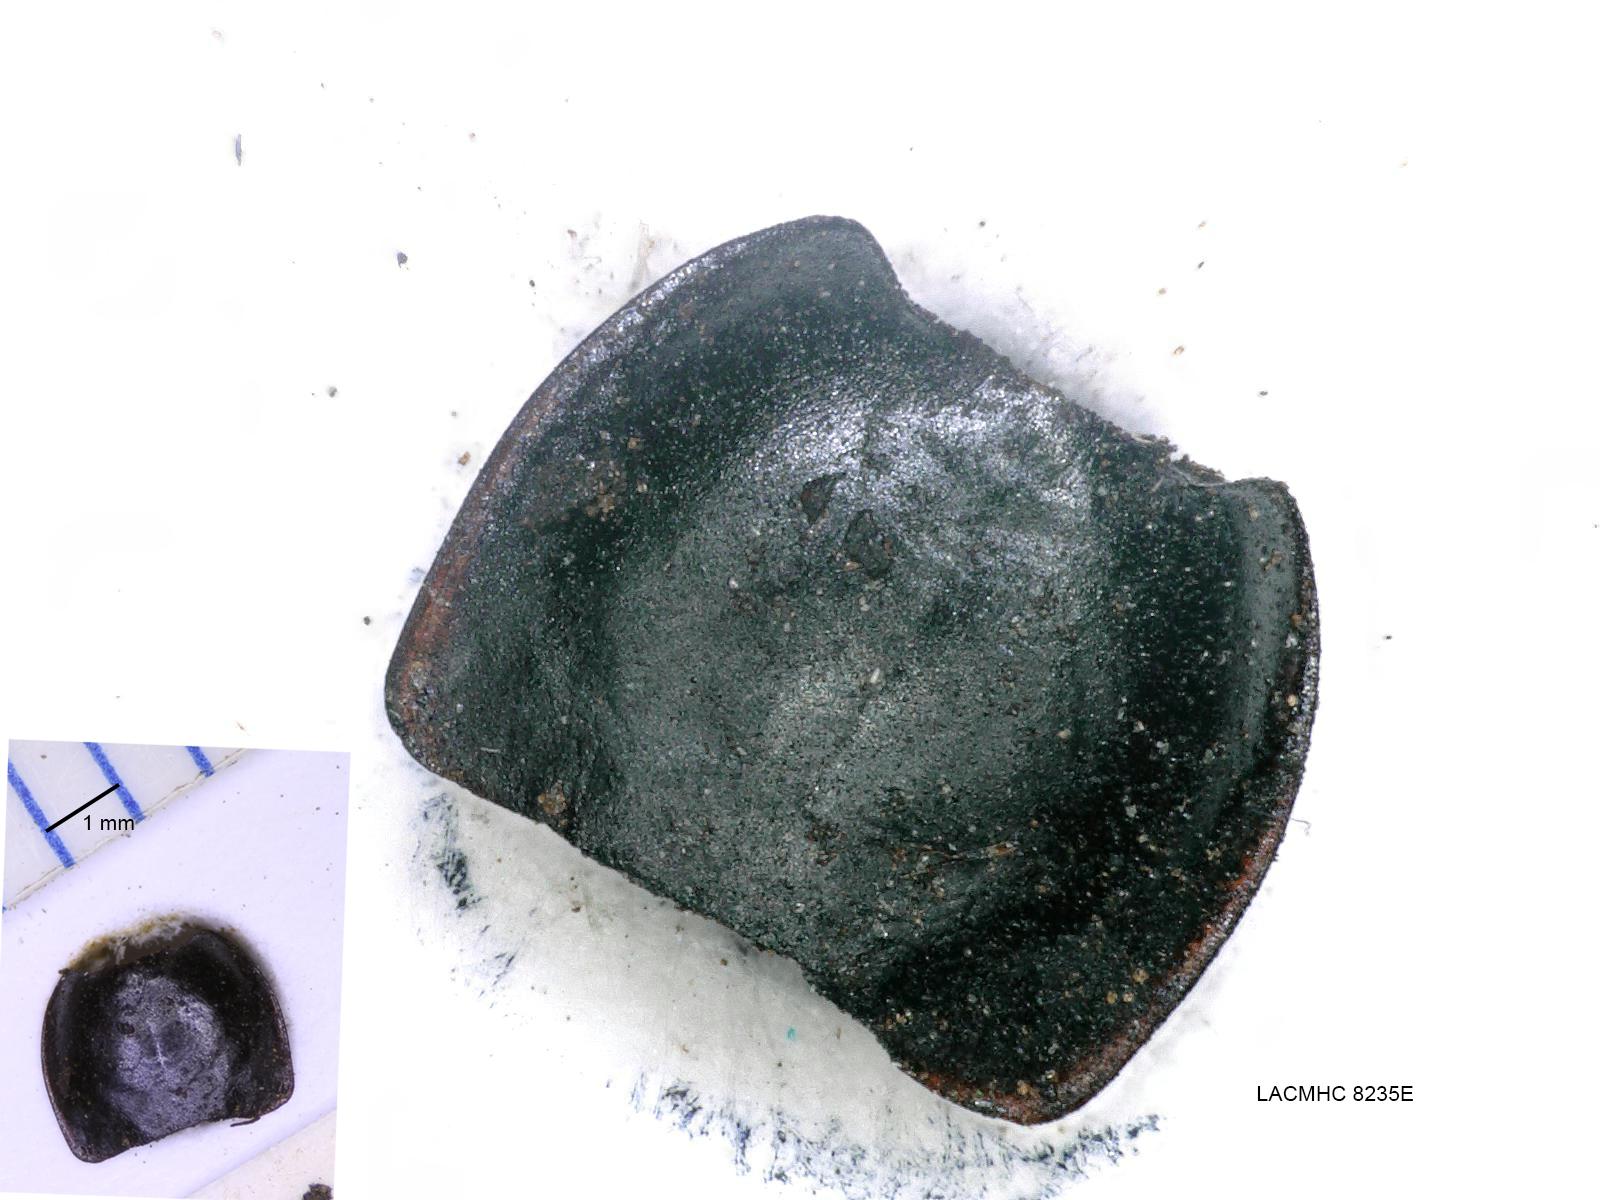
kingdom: Animalia
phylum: Arthropoda
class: Insecta
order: Coleoptera
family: Carabidae
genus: Calathus
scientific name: Calathus ruficollis
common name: Red-collared harp ground beetle
